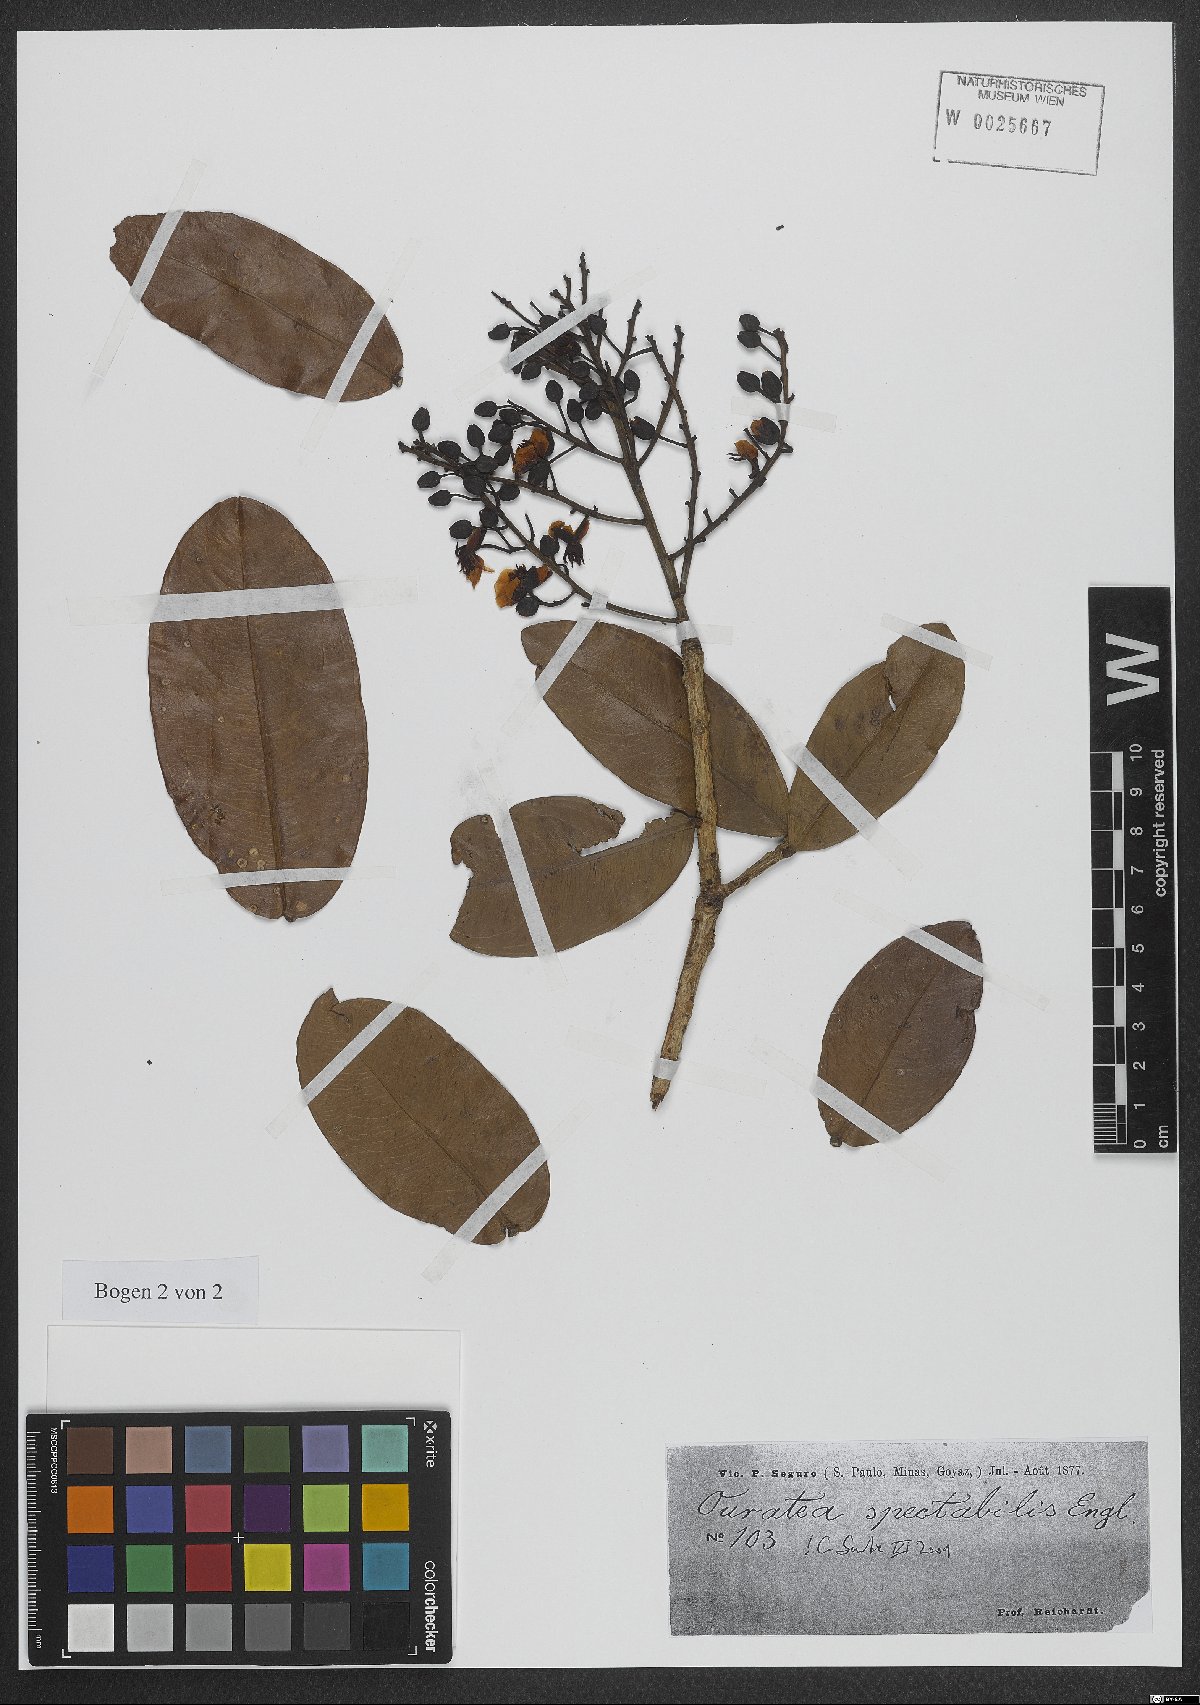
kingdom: Plantae
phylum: Tracheophyta
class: Magnoliopsida
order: Malpighiales
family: Ochnaceae
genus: Ouratea
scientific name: Ouratea spectabilis
